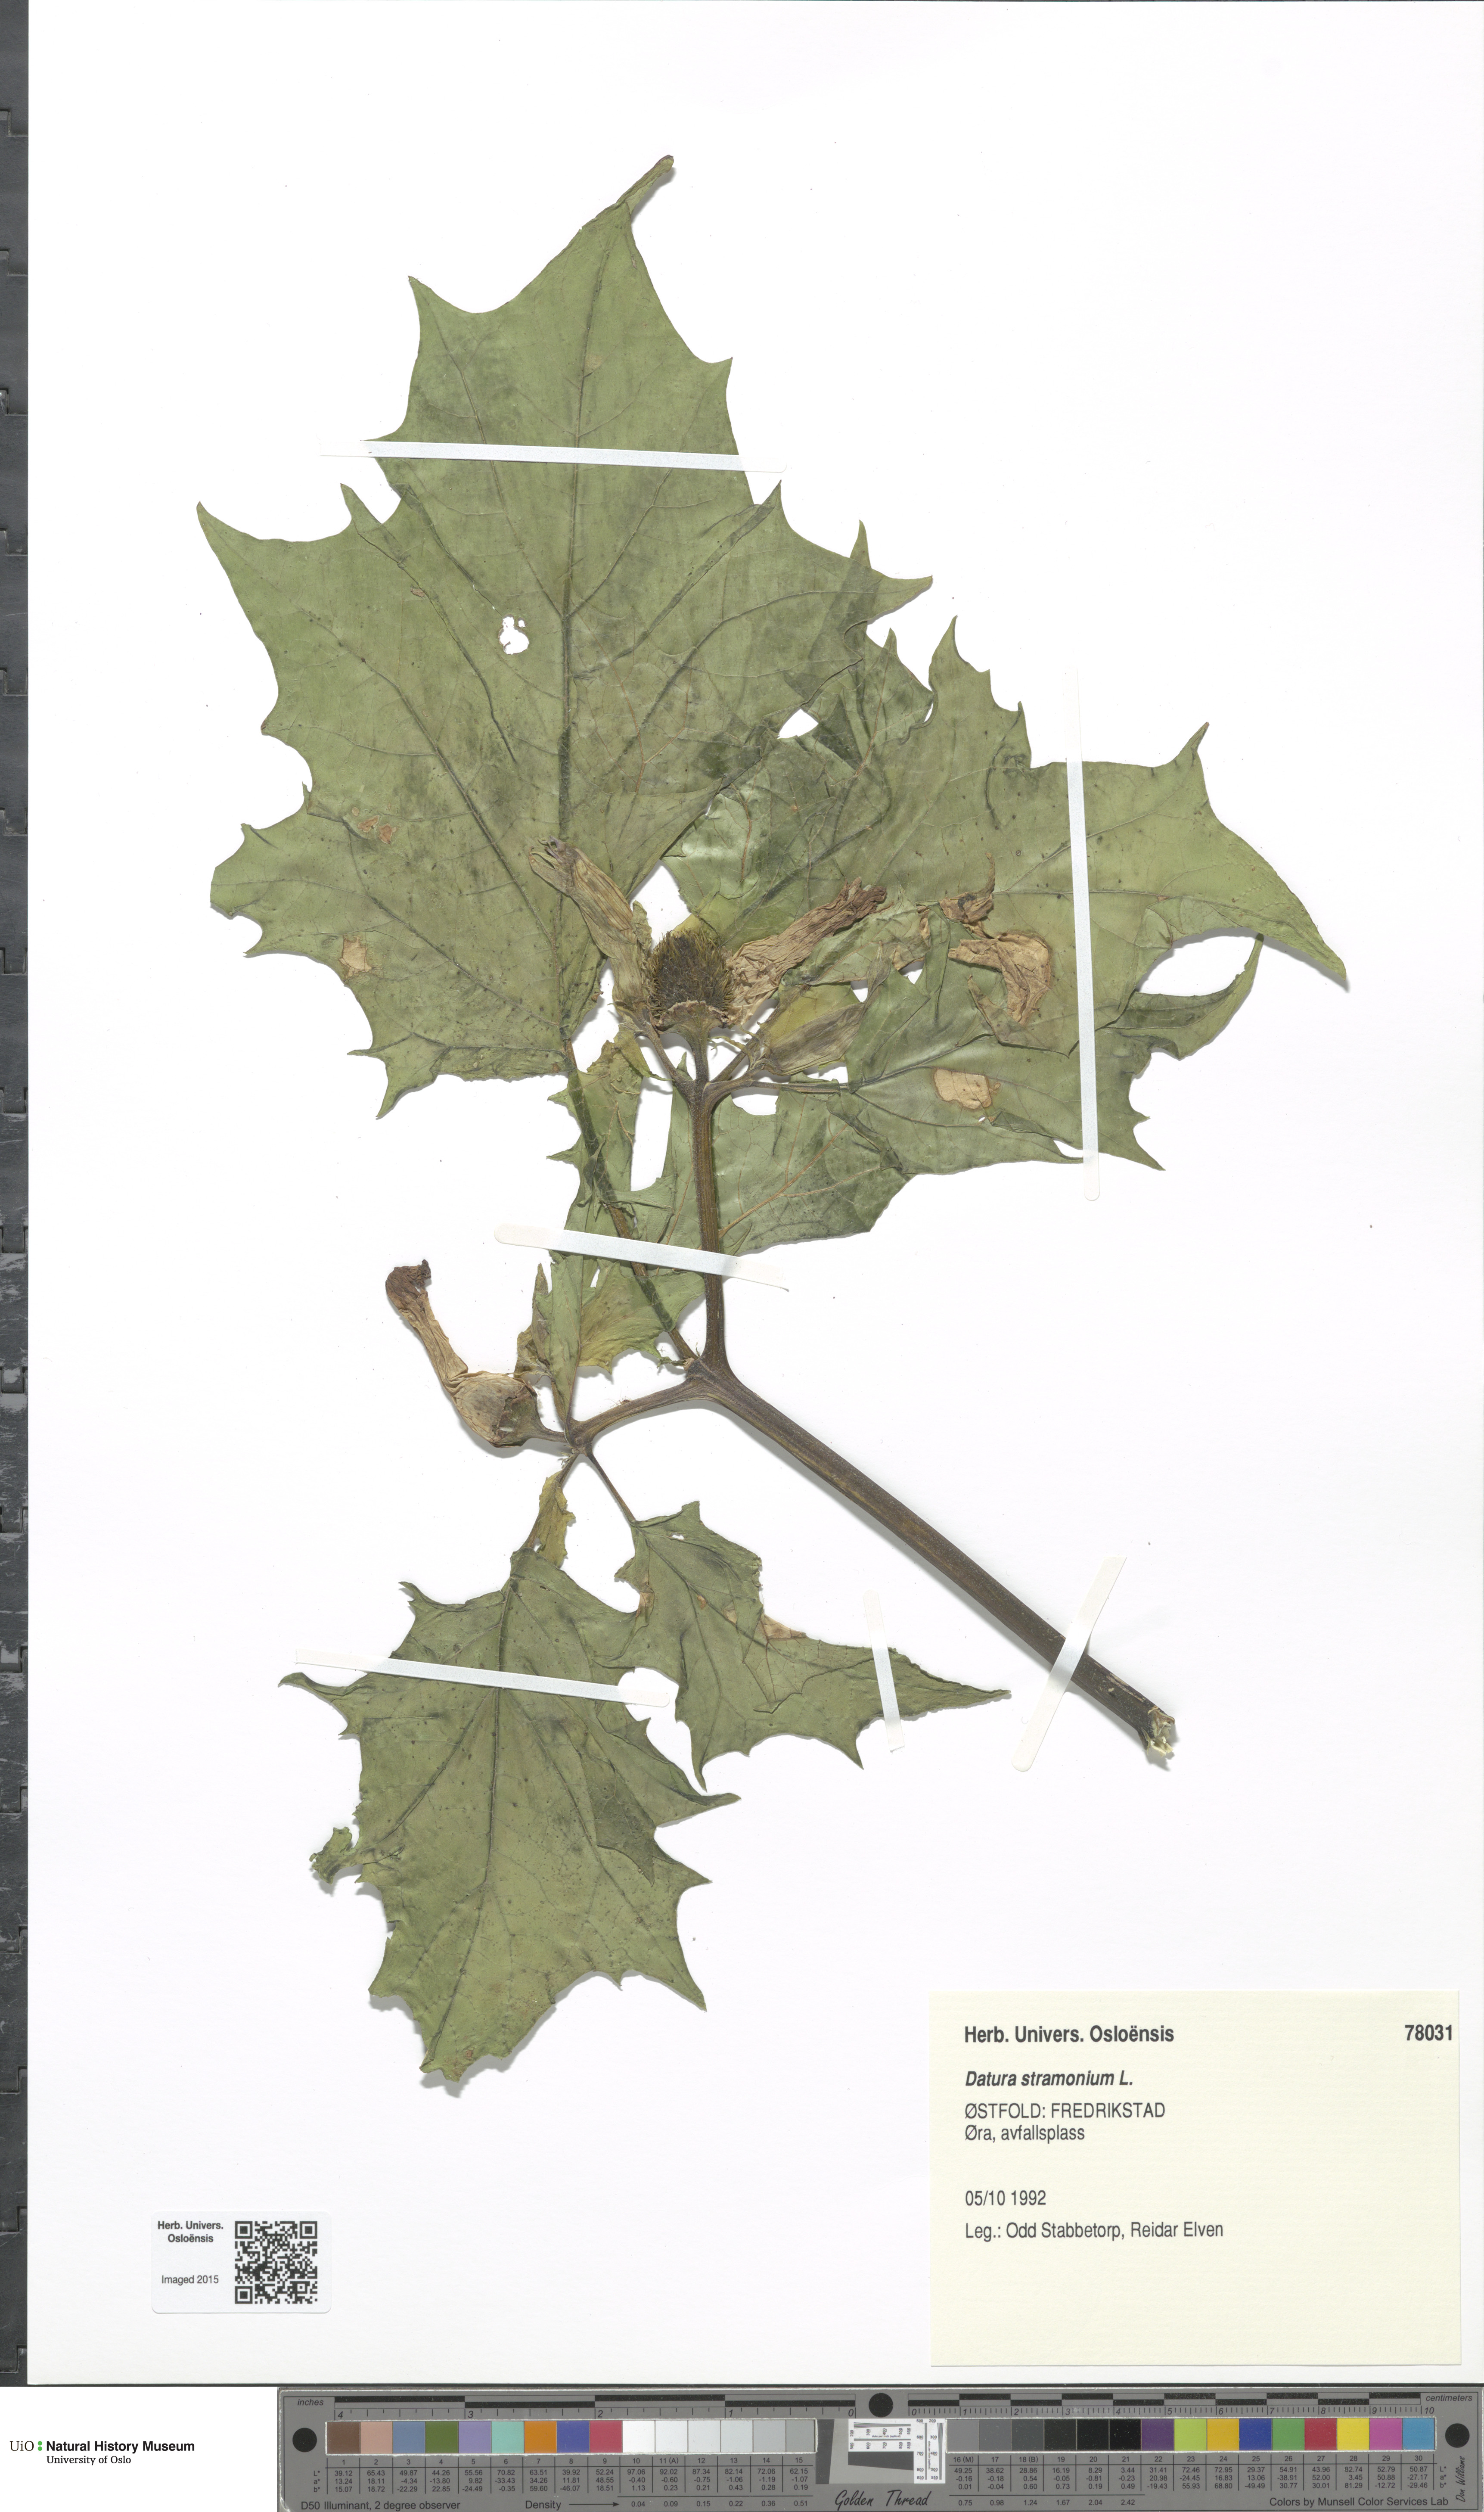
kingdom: Plantae
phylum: Tracheophyta
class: Magnoliopsida
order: Solanales
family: Solanaceae
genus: Datura
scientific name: Datura stramonium
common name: Thorn-apple
